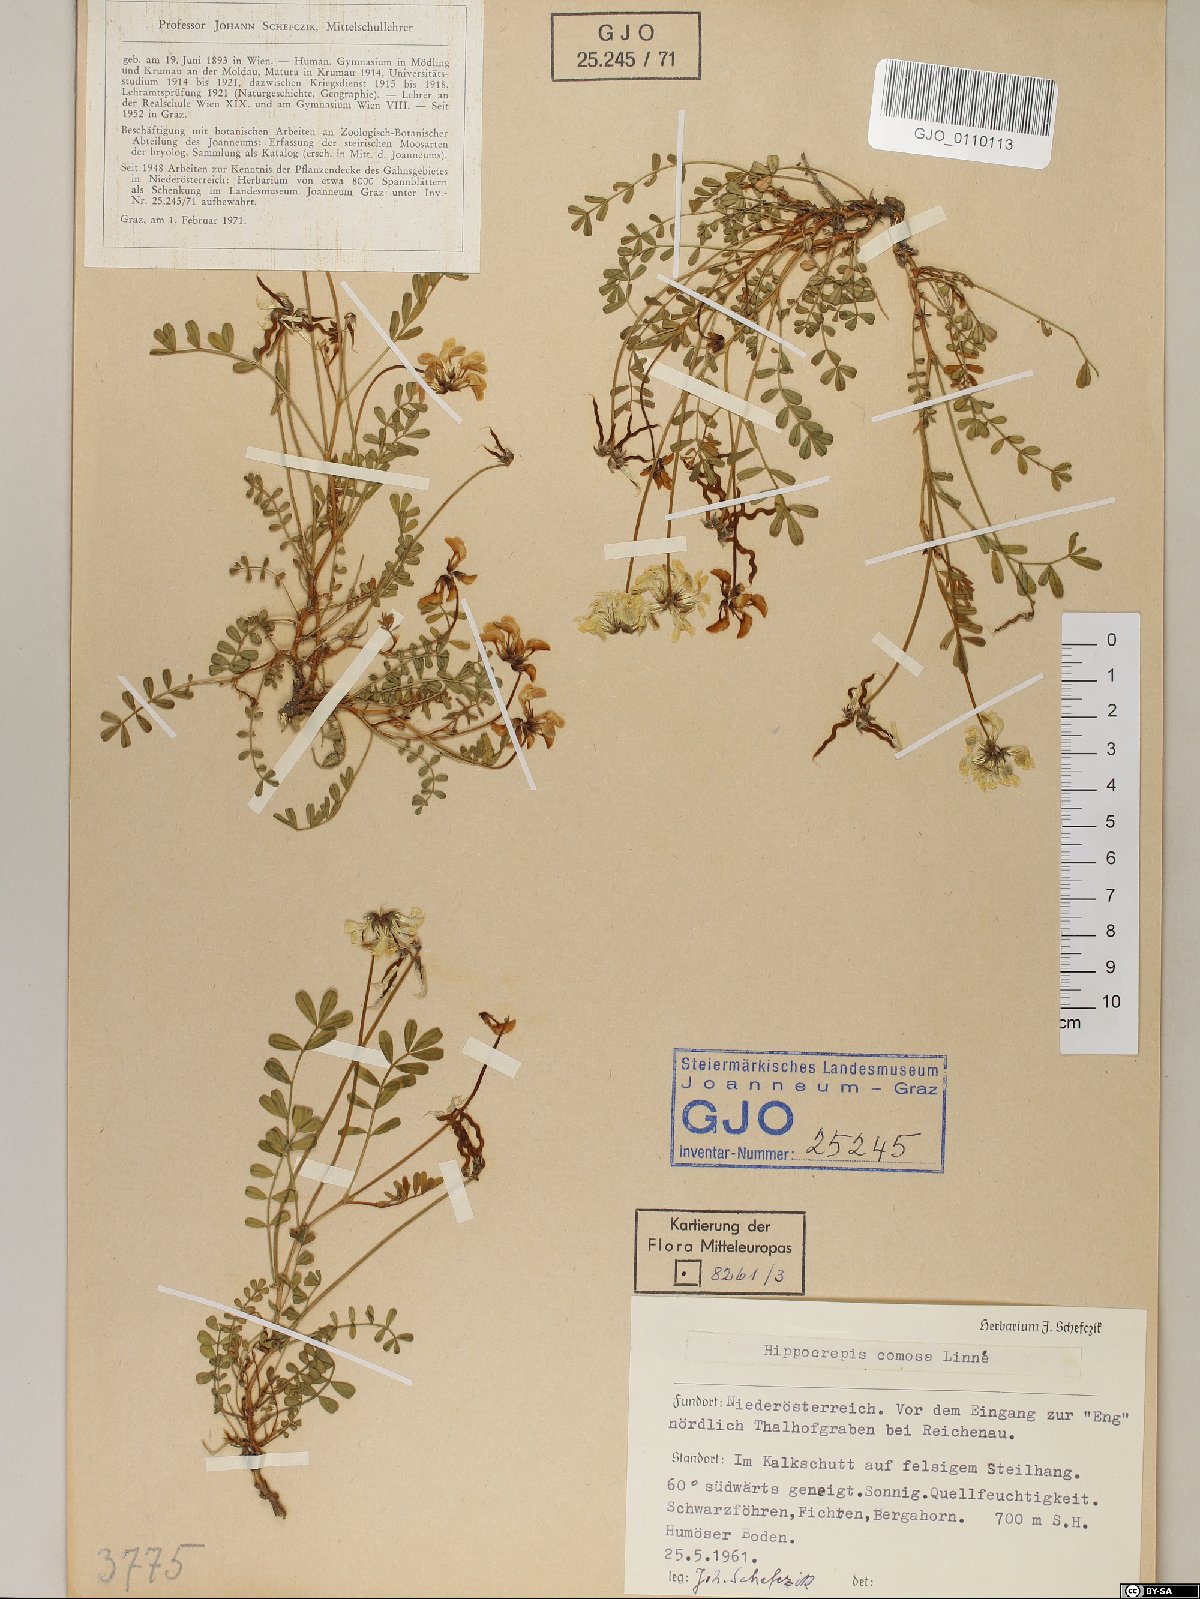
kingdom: Plantae
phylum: Tracheophyta
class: Magnoliopsida
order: Fabales
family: Fabaceae
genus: Hippocrepis
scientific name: Hippocrepis comosa
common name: Horseshoe vetch
